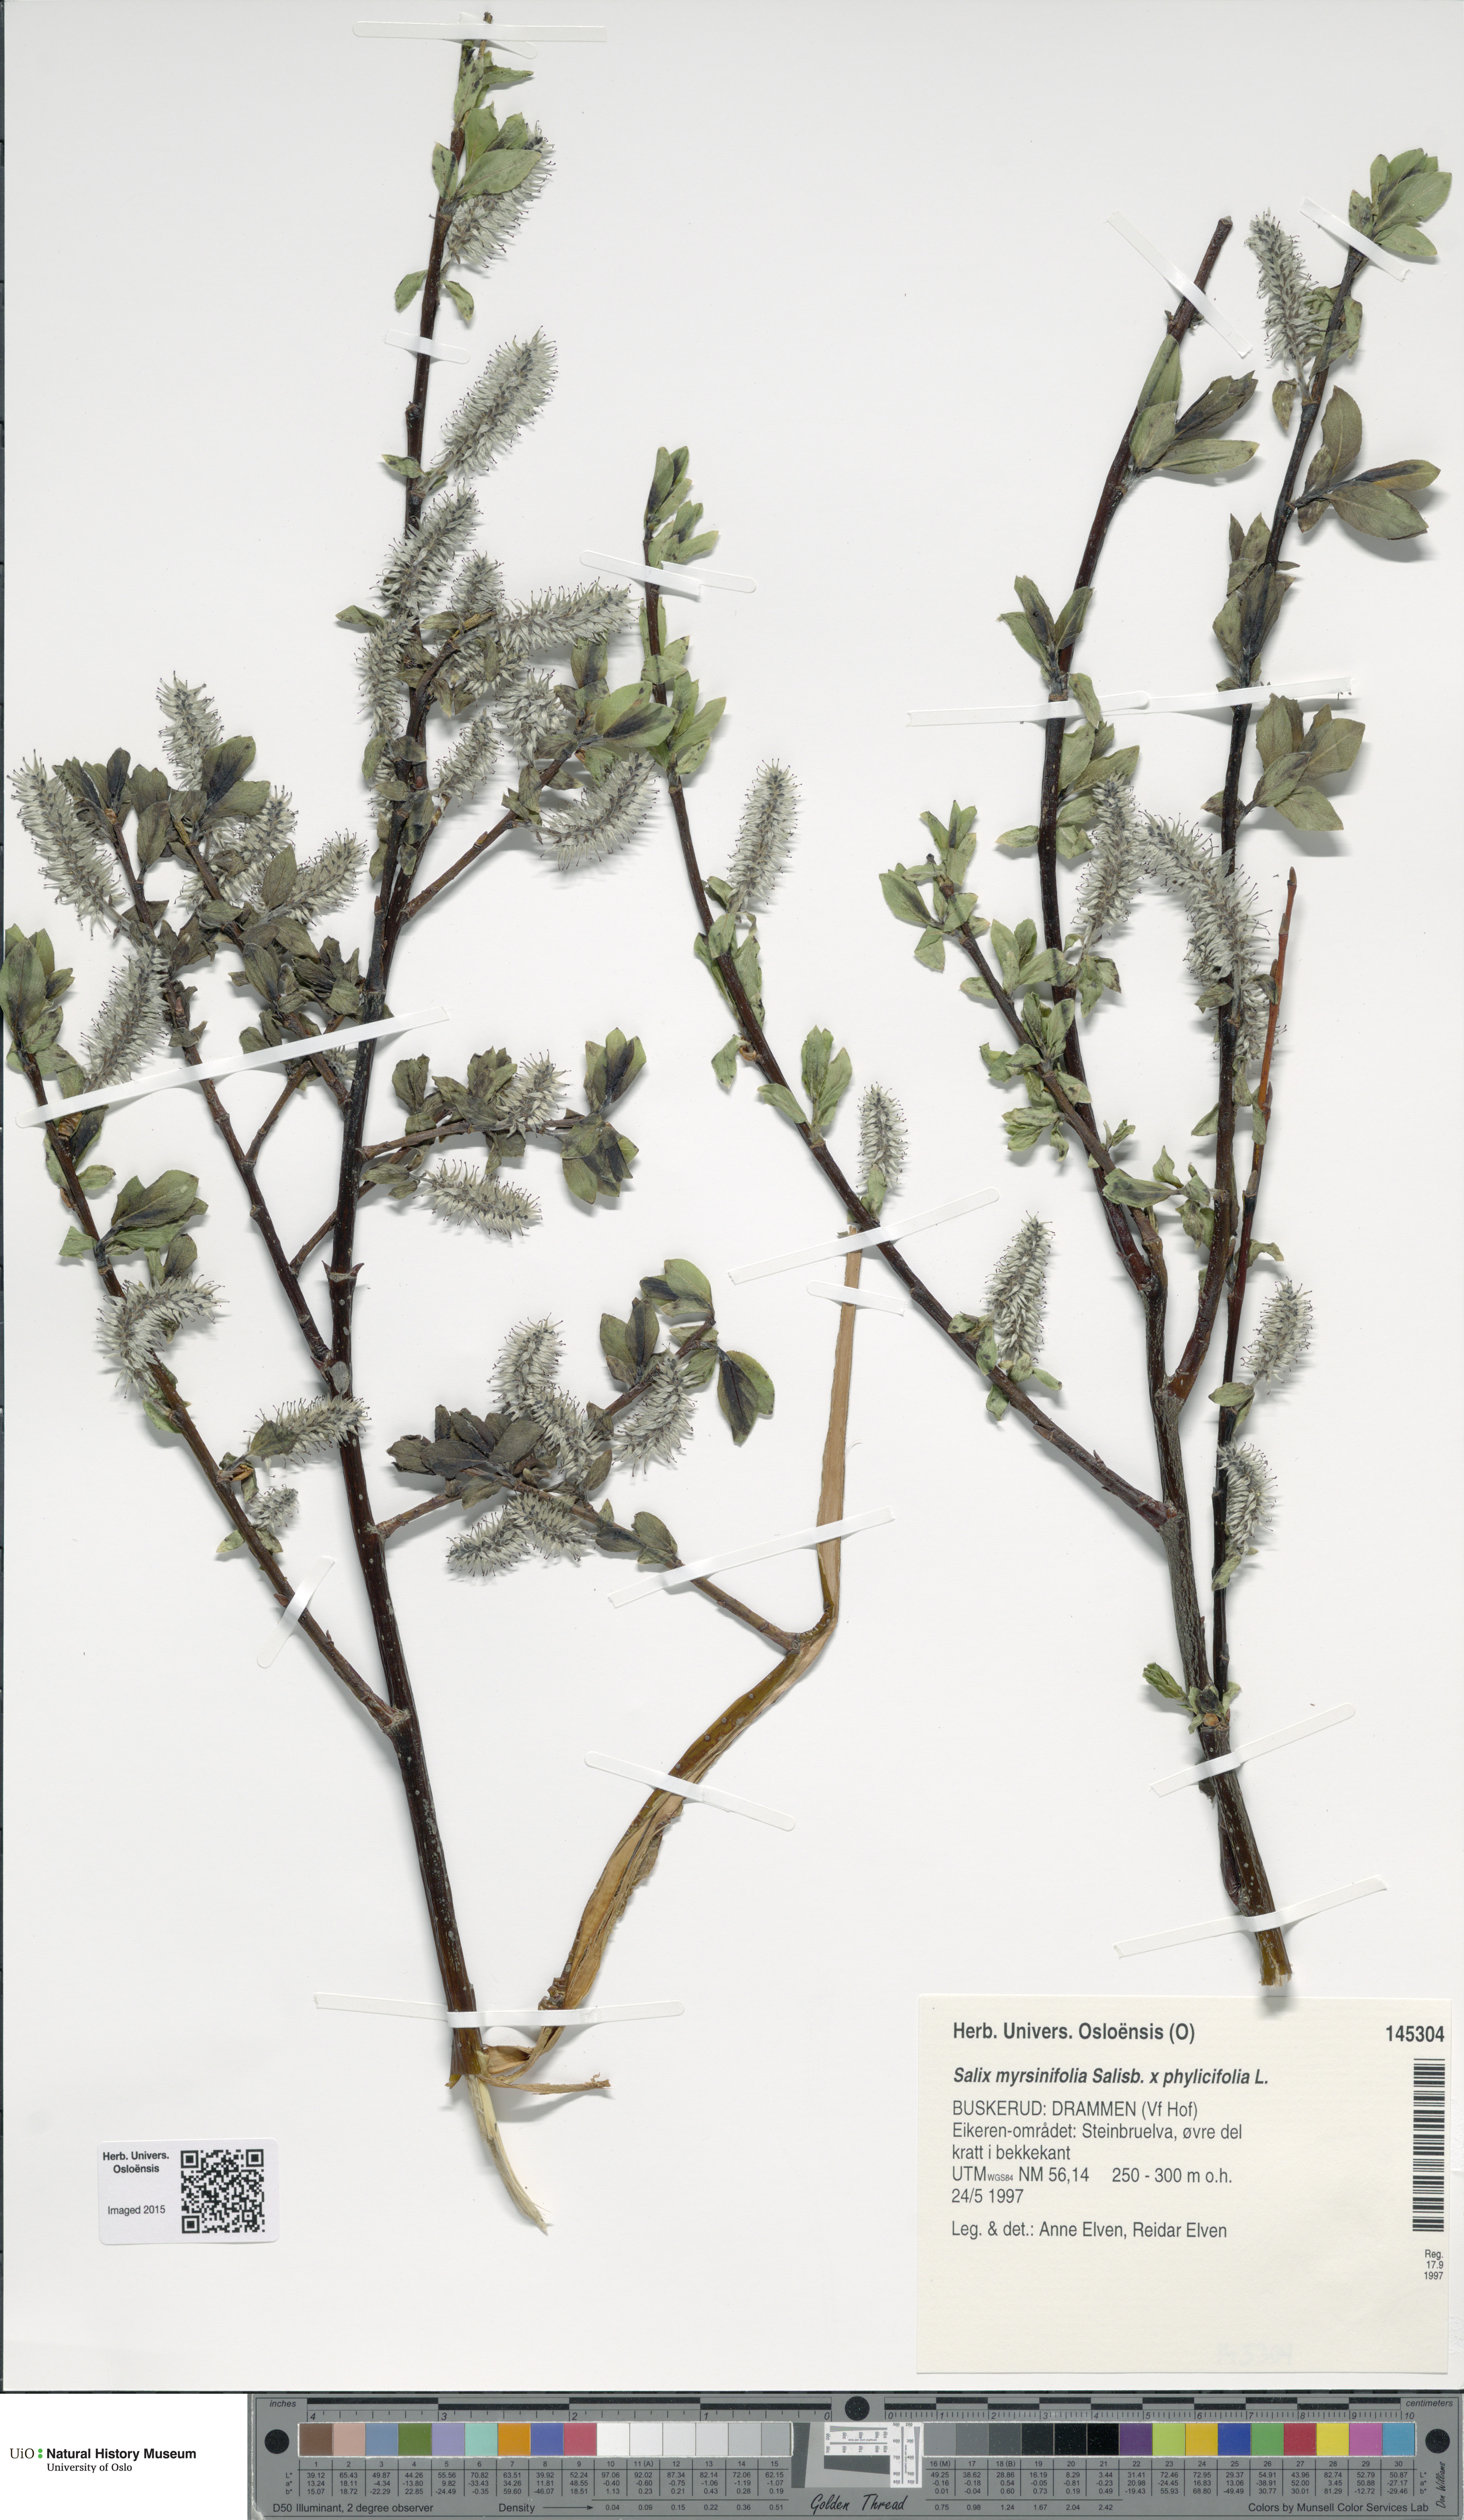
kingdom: Plantae
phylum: Tracheophyta
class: Magnoliopsida
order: Malpighiales
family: Salicaceae
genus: Salix
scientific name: Salix
